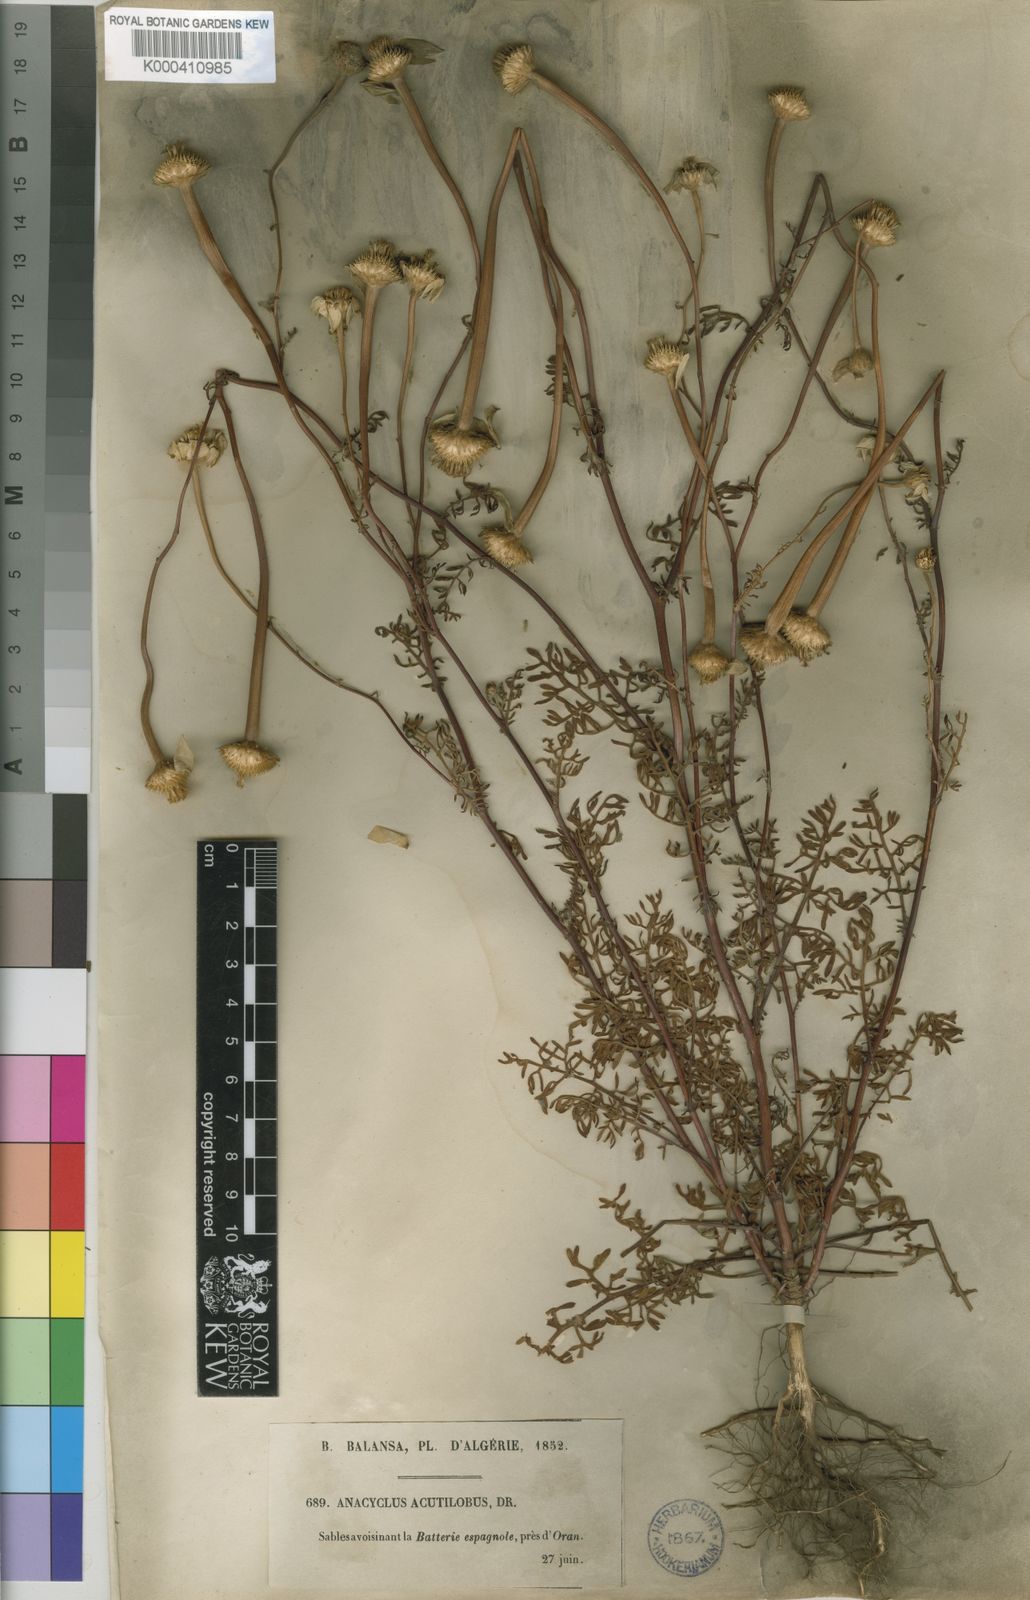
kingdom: Plantae
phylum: Tracheophyta
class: Magnoliopsida
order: Asterales
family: Asteraceae
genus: Anacyclus
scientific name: Anacyclus linearilobus
